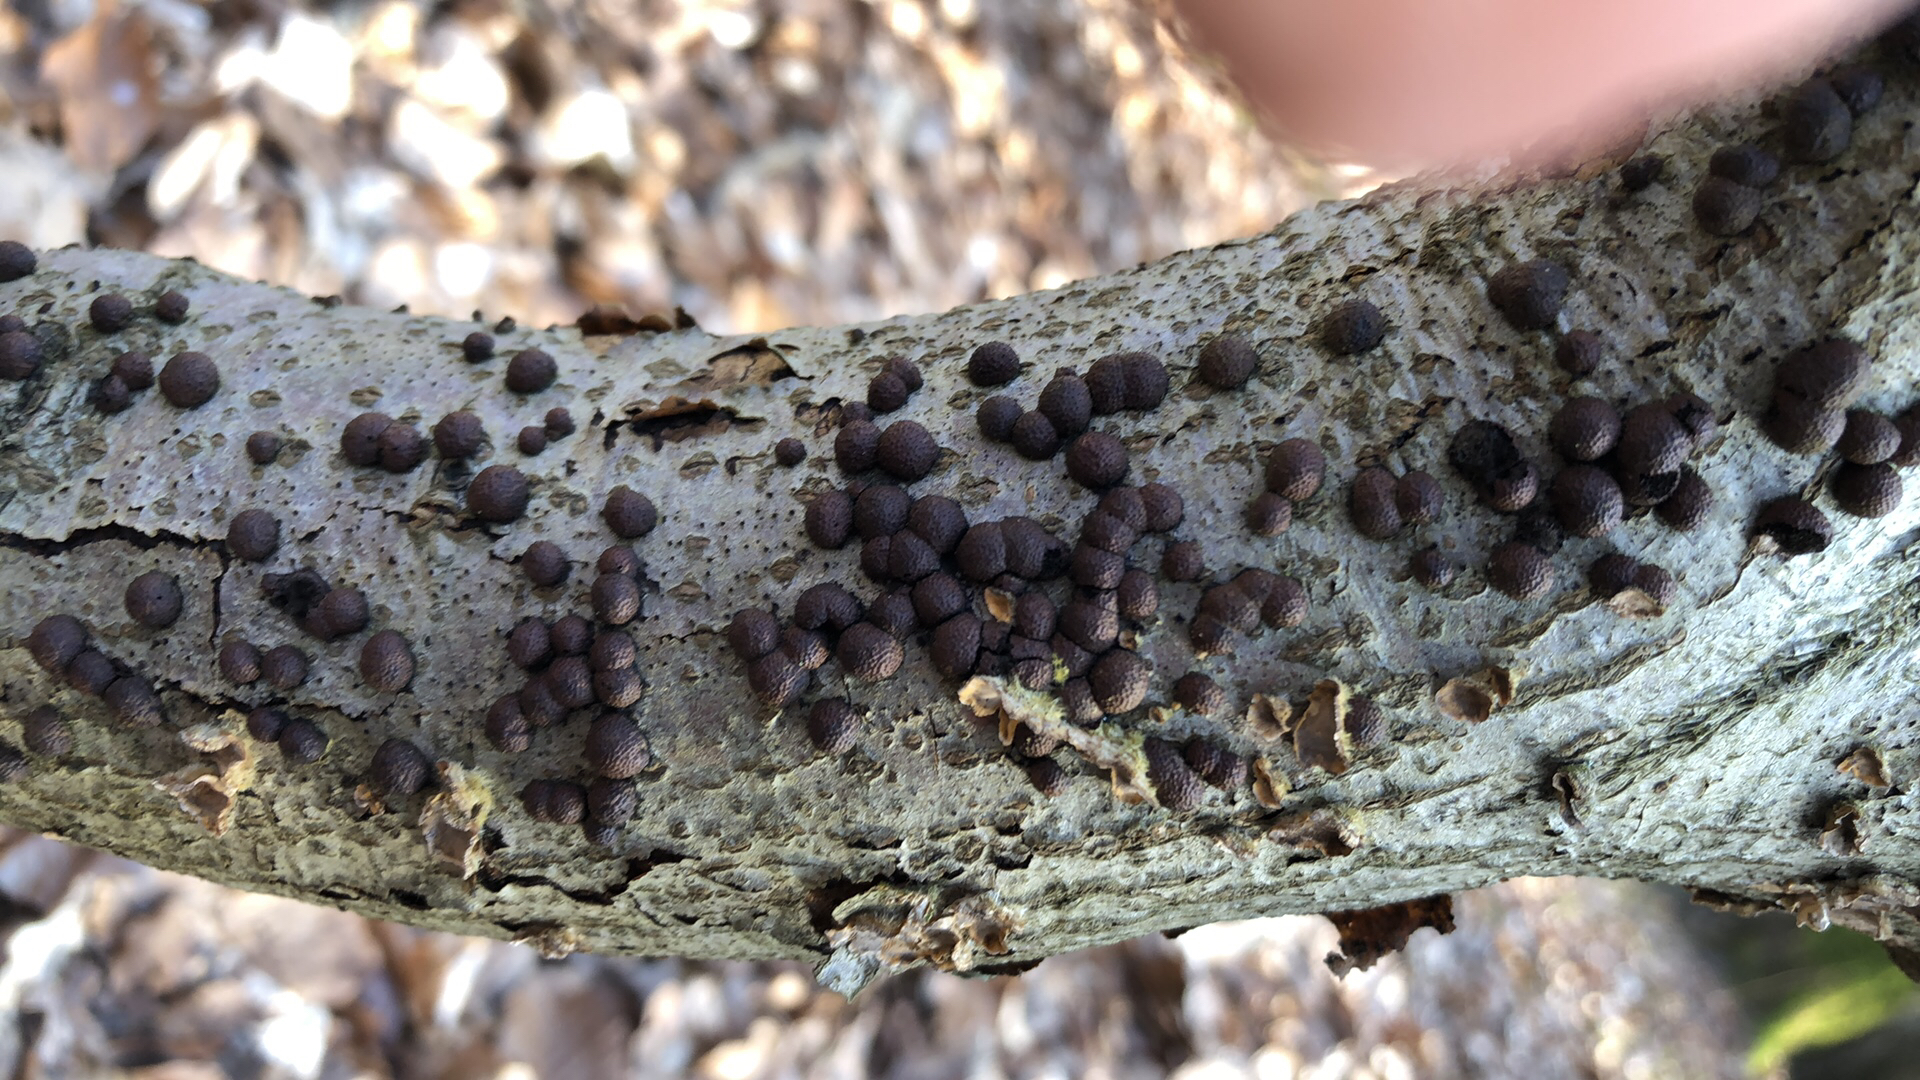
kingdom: Fungi
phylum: Ascomycota
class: Sordariomycetes
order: Xylariales
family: Hypoxylaceae
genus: Hypoxylon
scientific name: Hypoxylon fragiforme
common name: kuljordbær
